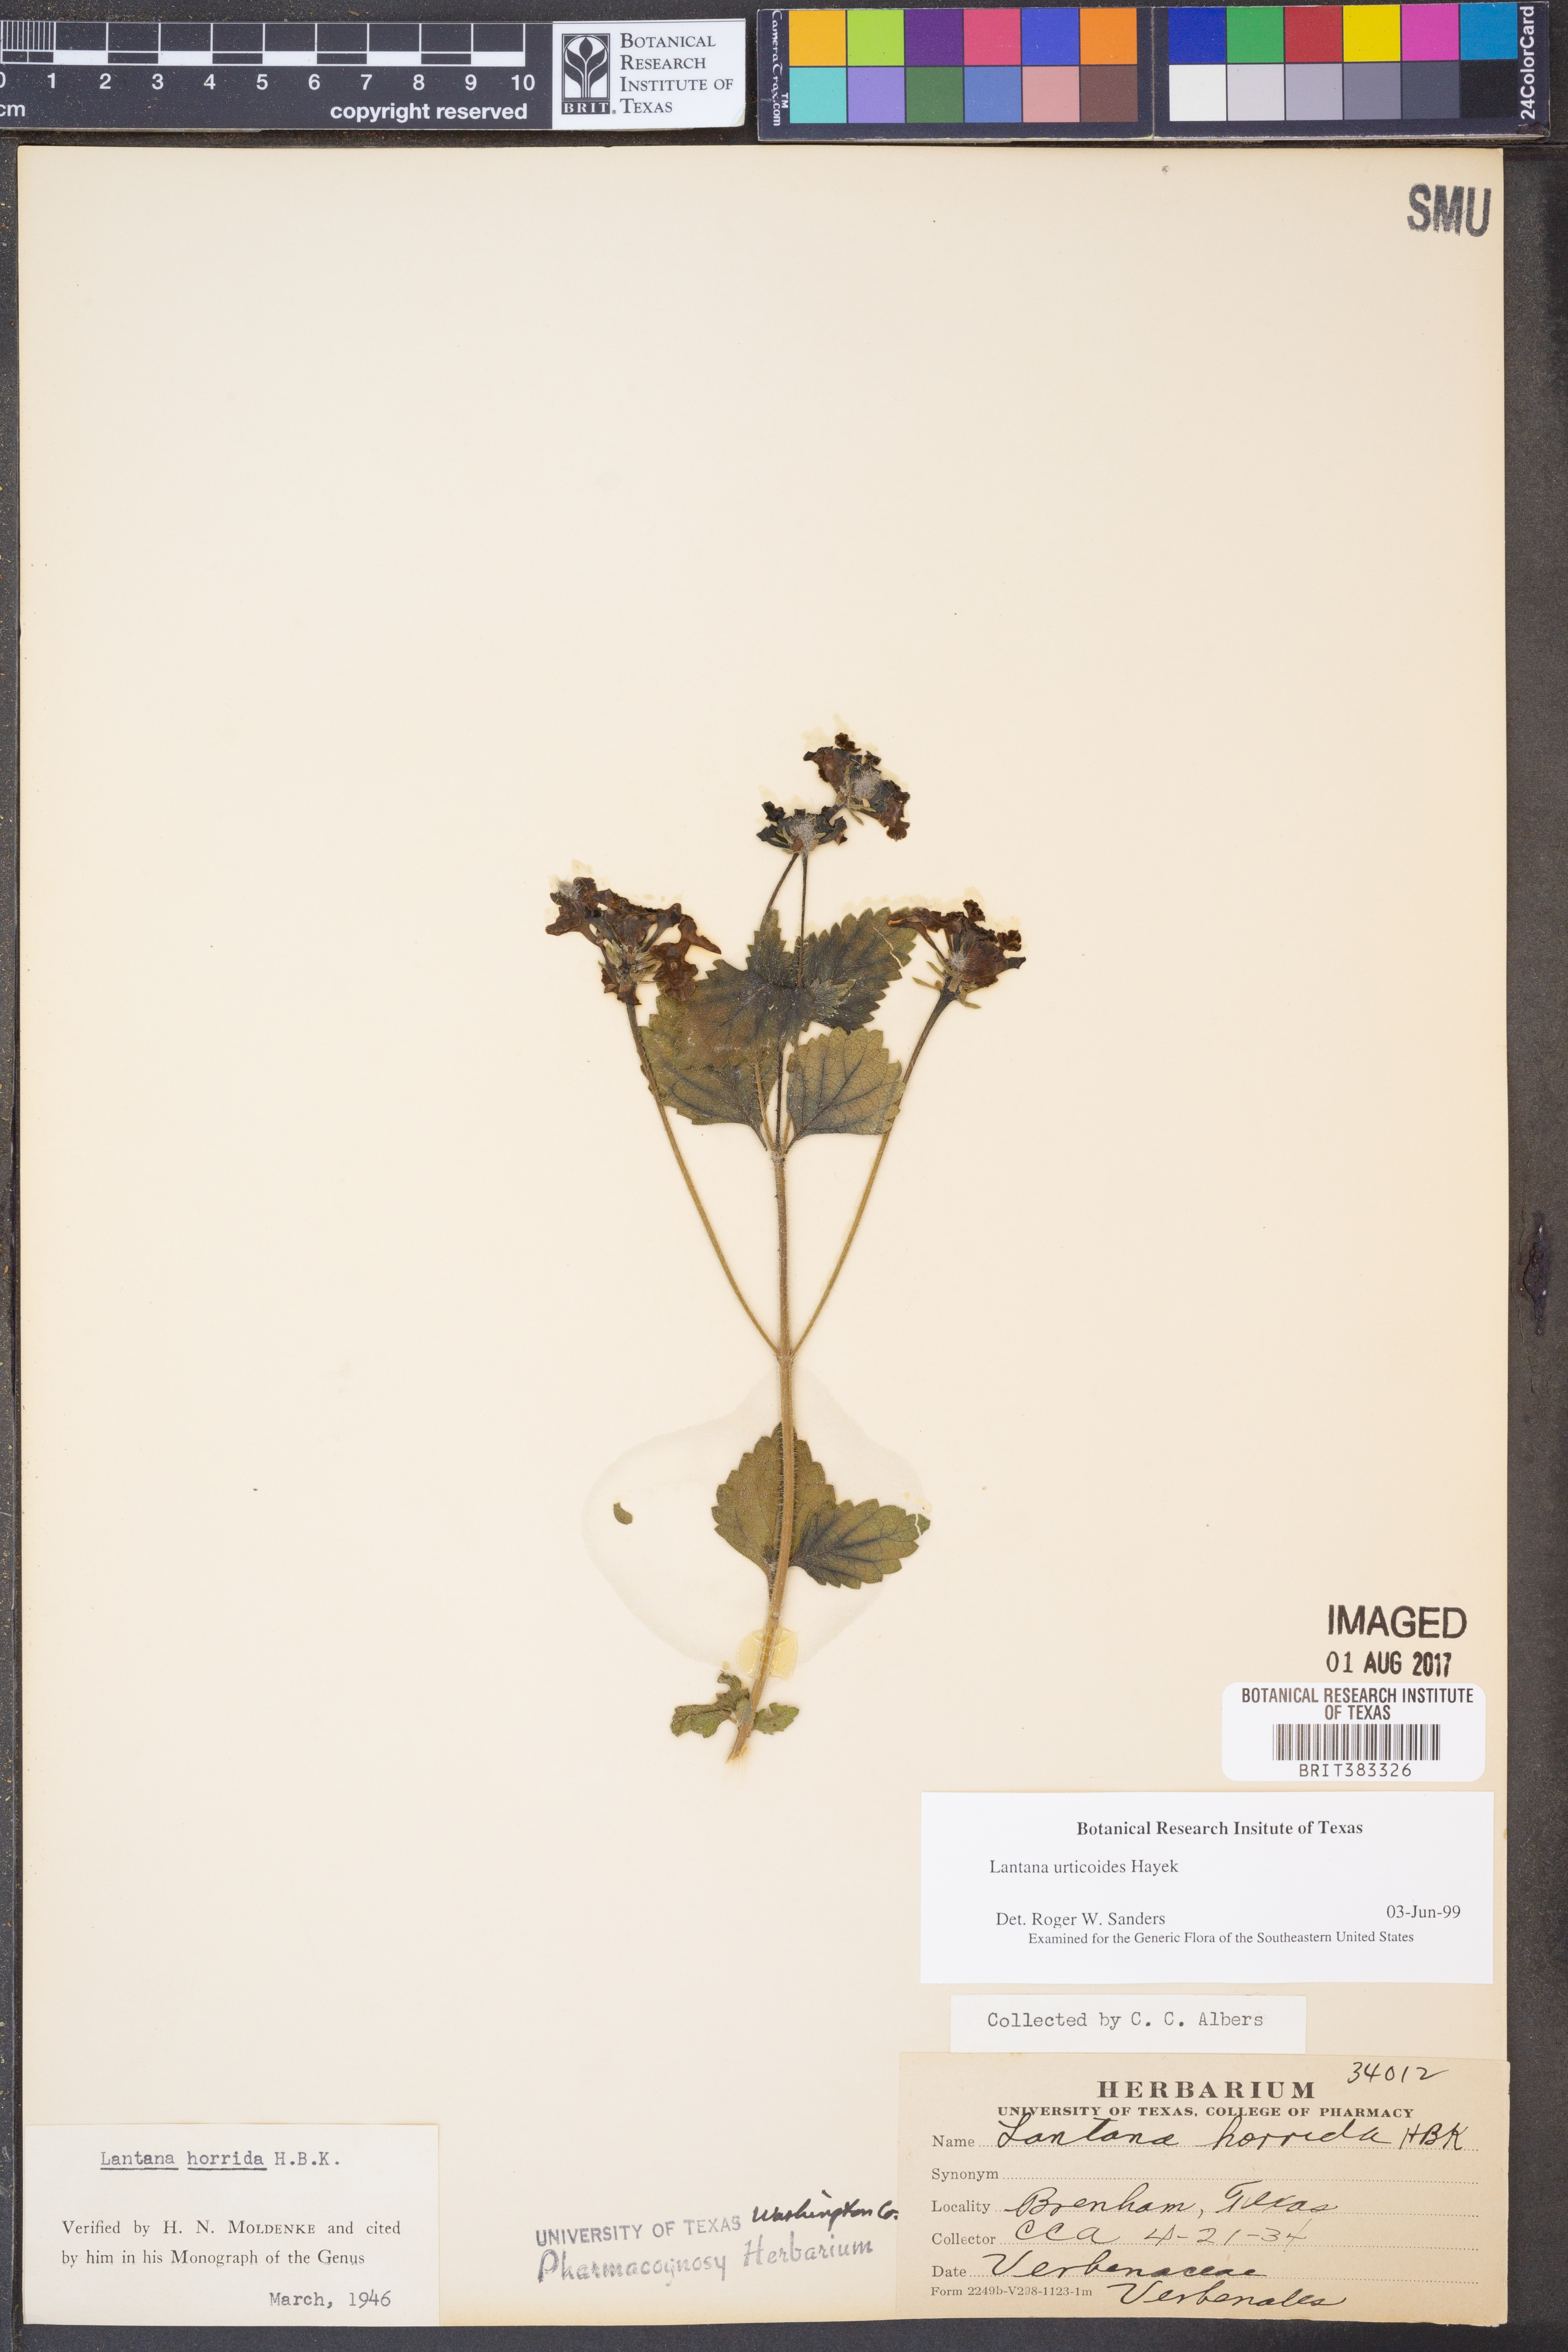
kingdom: Plantae
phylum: Tracheophyta
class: Magnoliopsida
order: Lamiales
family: Verbenaceae
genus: Lantana
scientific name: Lantana urticoides
